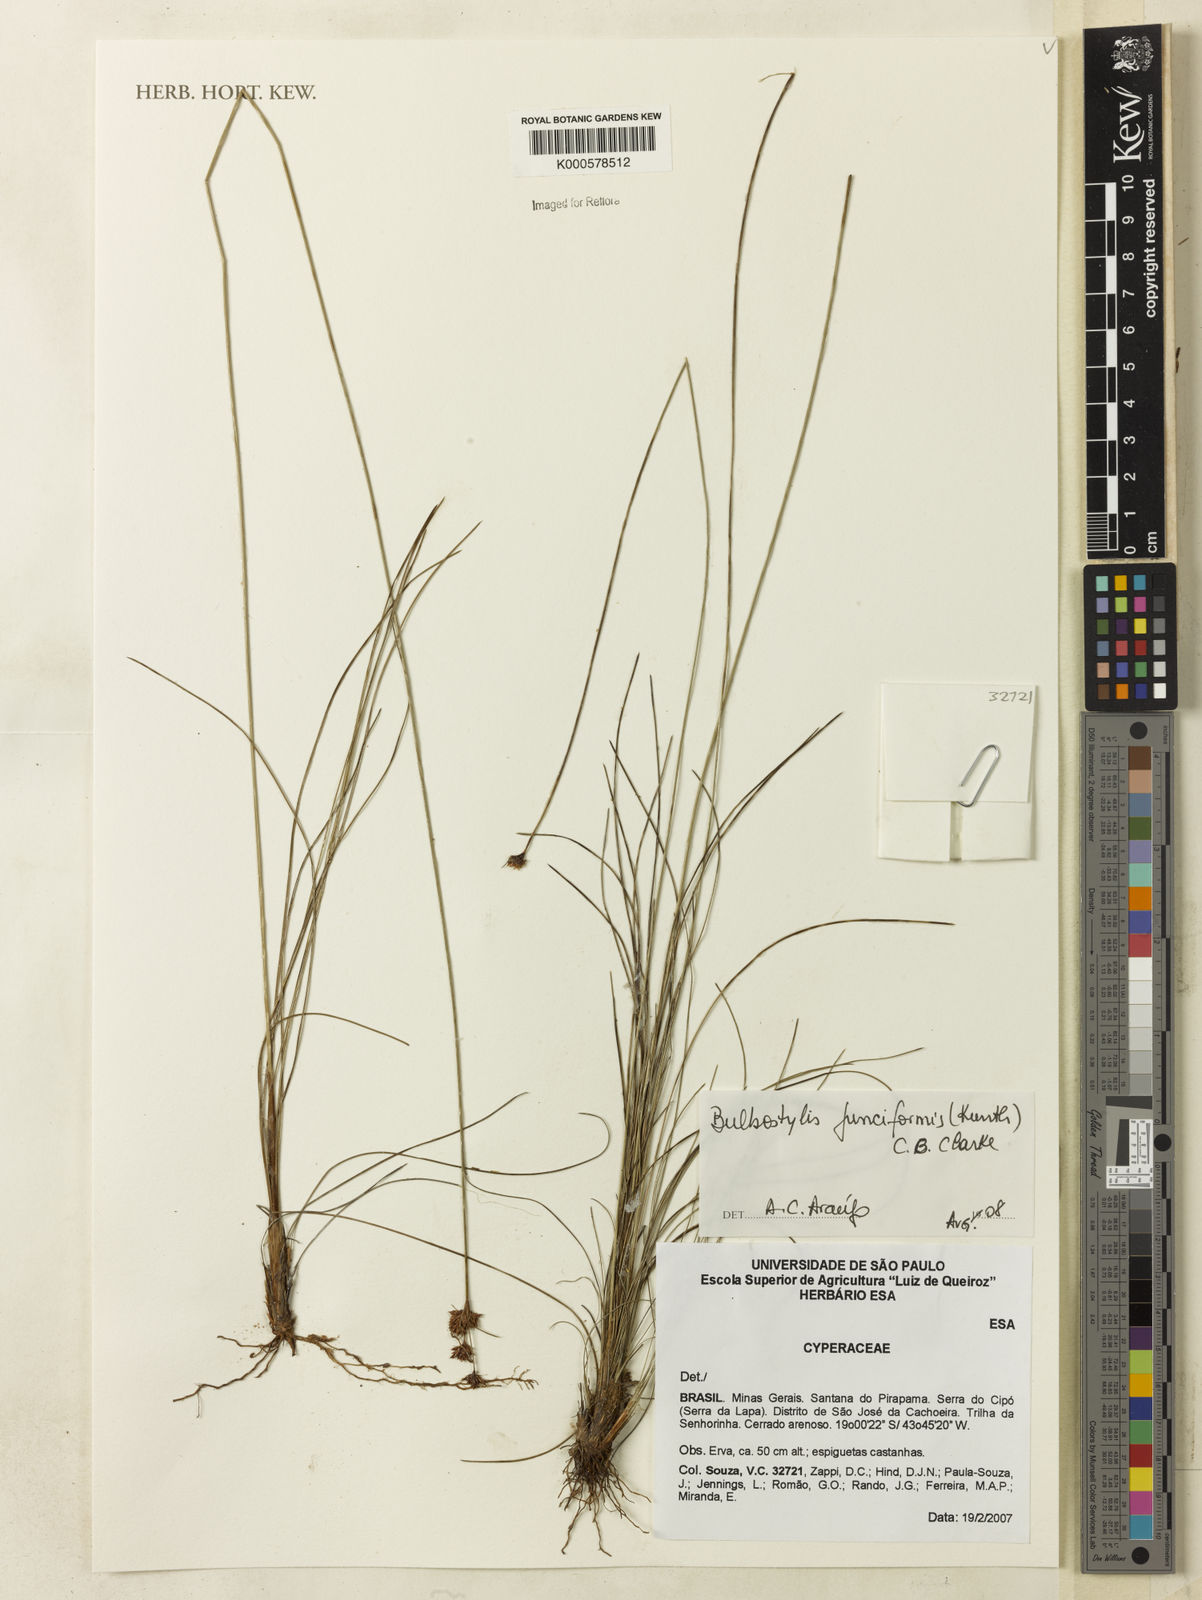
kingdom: Plantae
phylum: Tracheophyta
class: Liliopsida
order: Poales
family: Cyperaceae
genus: Bulbostylis
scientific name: Bulbostylis junciformis
